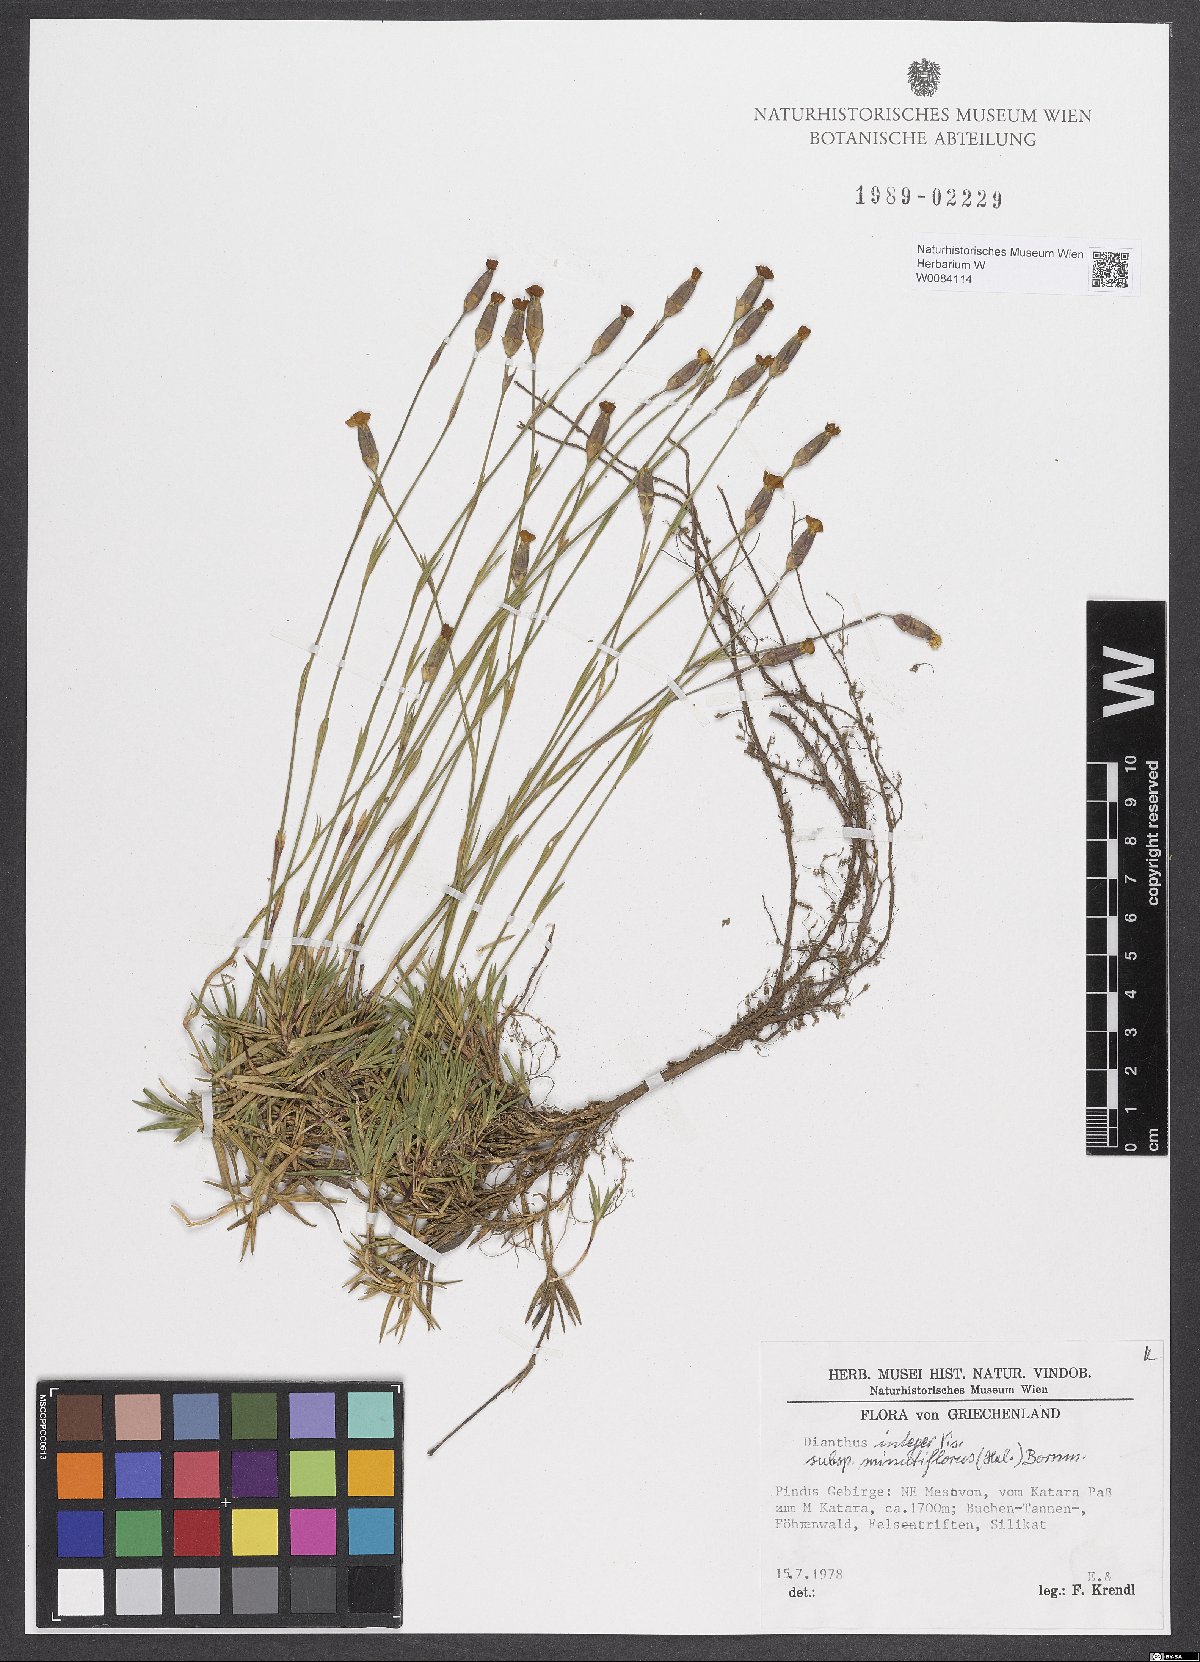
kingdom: Plantae
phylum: Tracheophyta
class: Magnoliopsida
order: Caryophyllales
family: Caryophyllaceae
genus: Dianthus
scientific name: Dianthus integer
